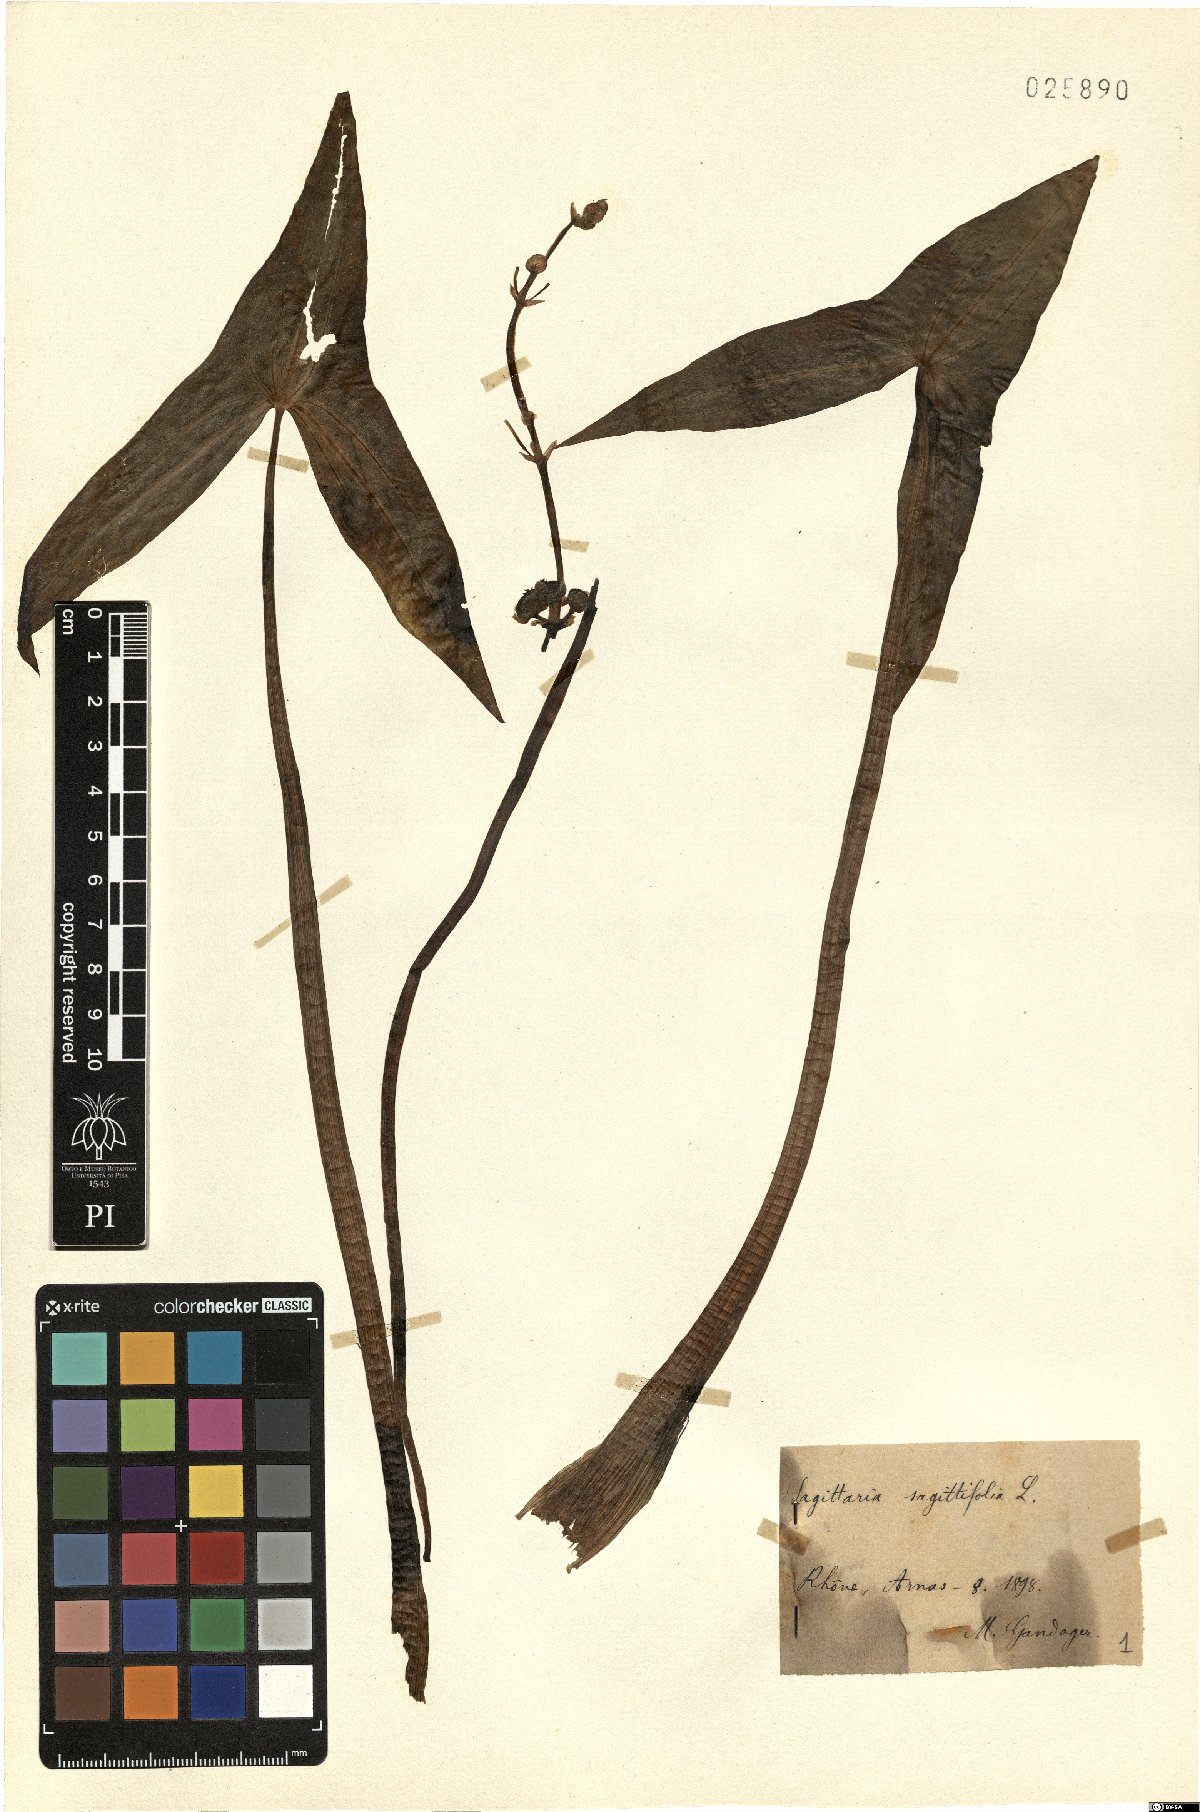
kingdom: Plantae
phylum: Tracheophyta
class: Liliopsida
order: Alismatales
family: Alismataceae
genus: Sagittaria
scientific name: Sagittaria sagittifolia
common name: Arrowhead
